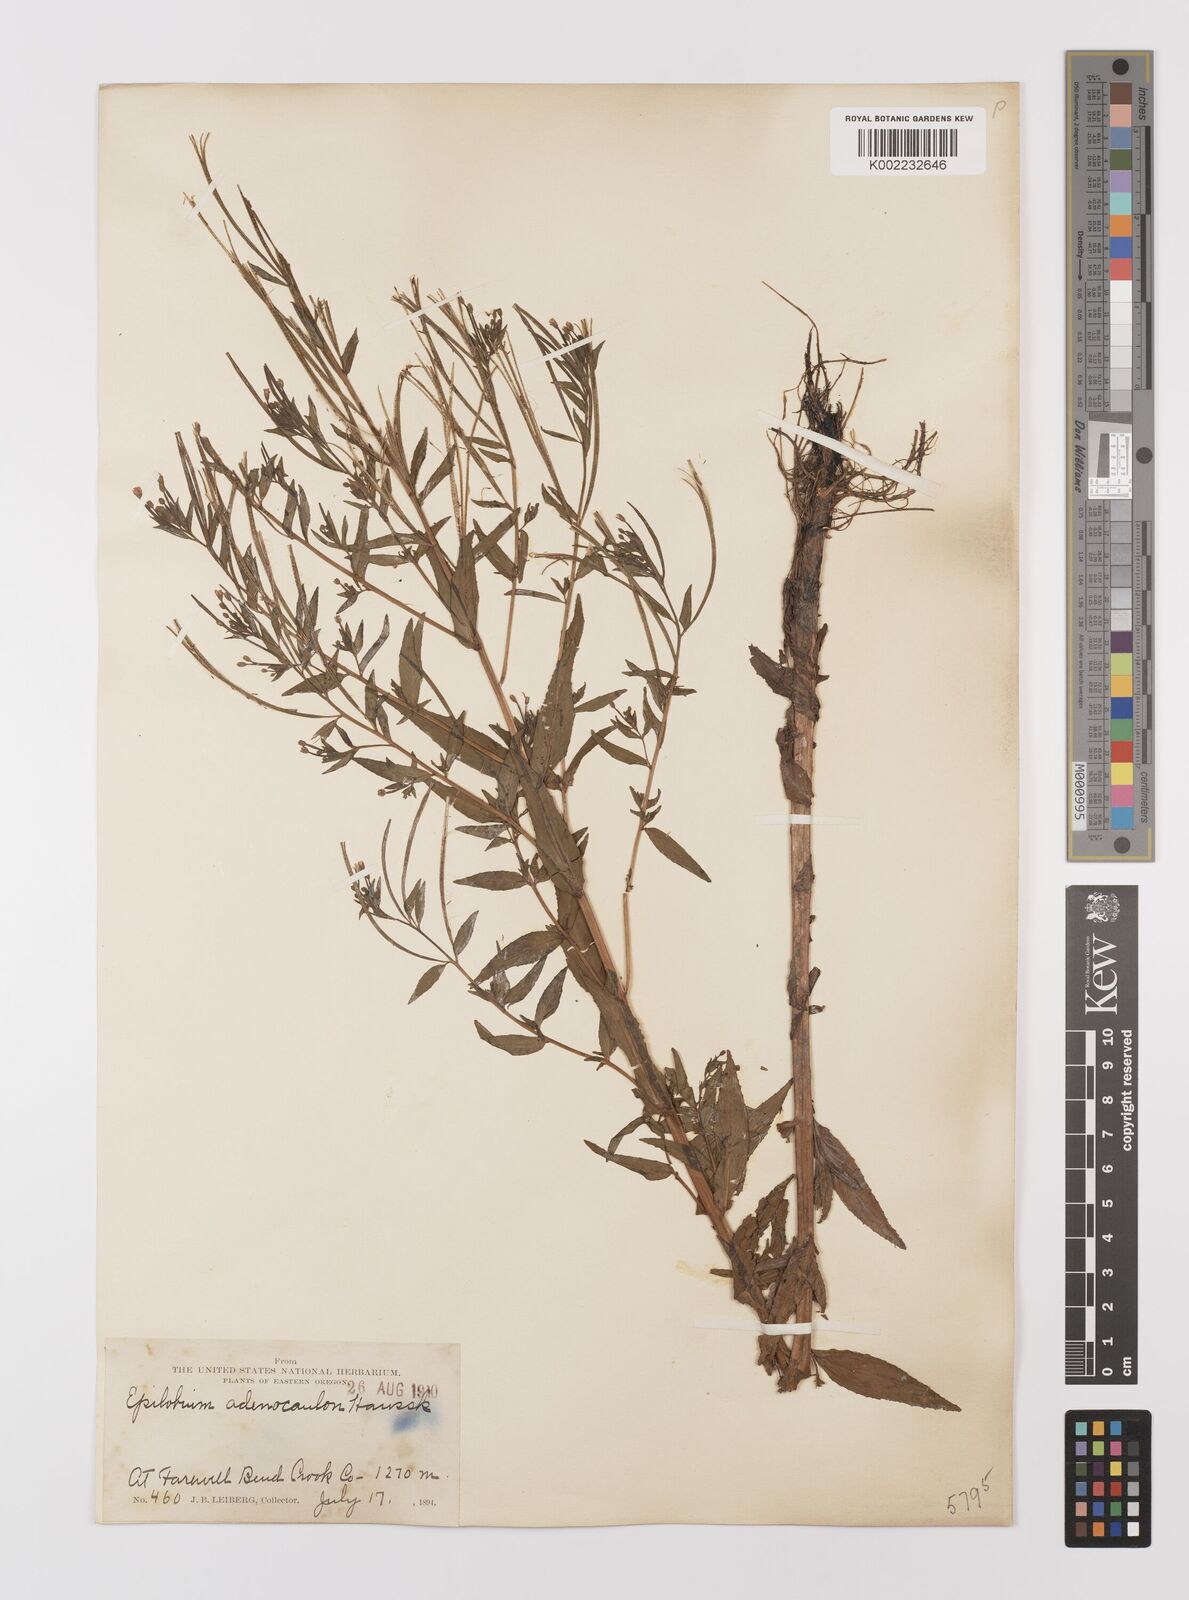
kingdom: Plantae
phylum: Tracheophyta
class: Magnoliopsida
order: Myrtales
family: Onagraceae
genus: Epilobium
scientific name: Epilobium ciliatum
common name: American willowherb
